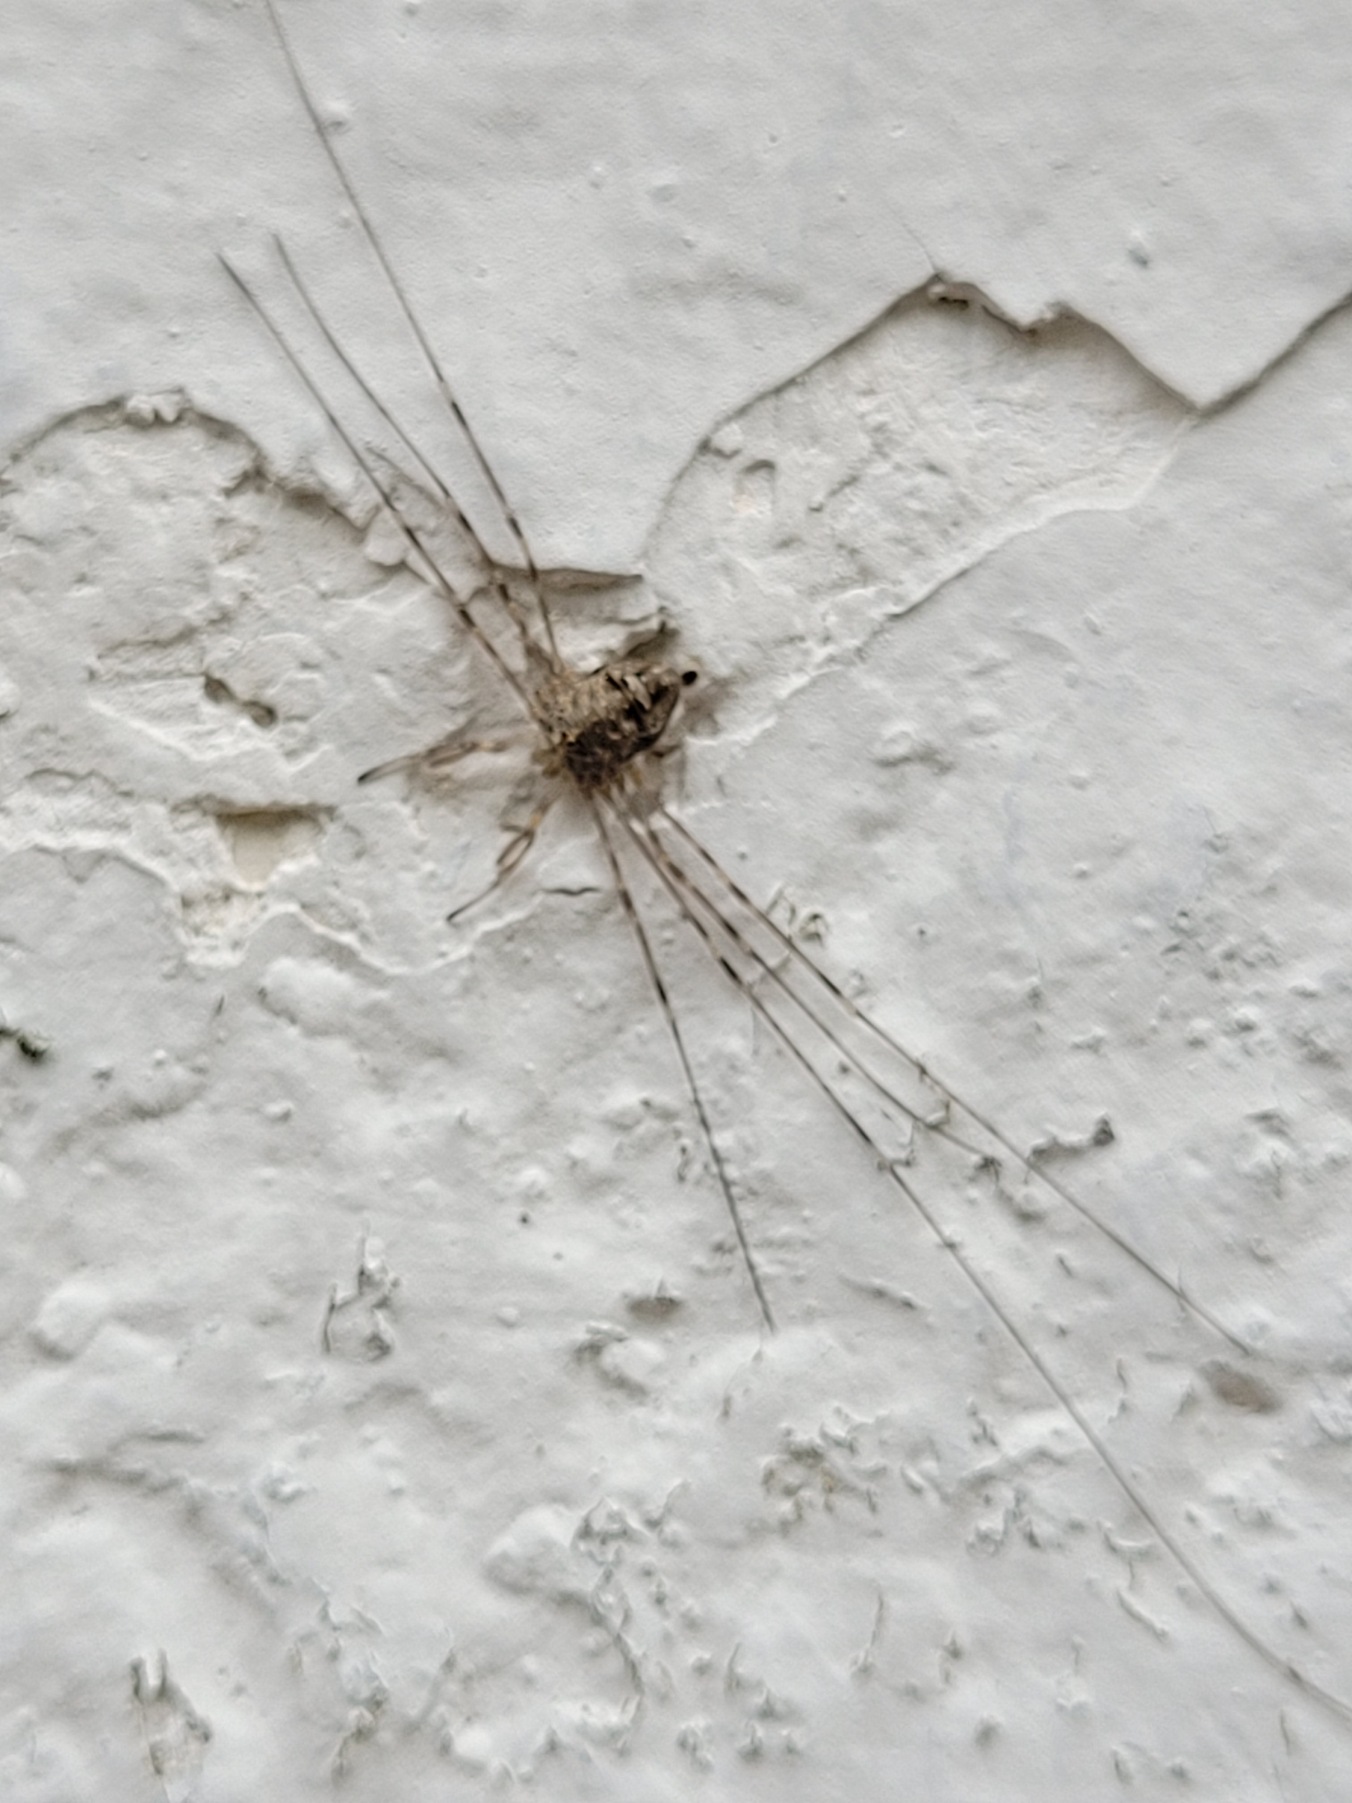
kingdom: Animalia
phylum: Arthropoda
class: Arachnida
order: Opiliones
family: Phalangiidae
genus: Dicranopalpus
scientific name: Dicranopalpus ramosus
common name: Gaffelmejer
